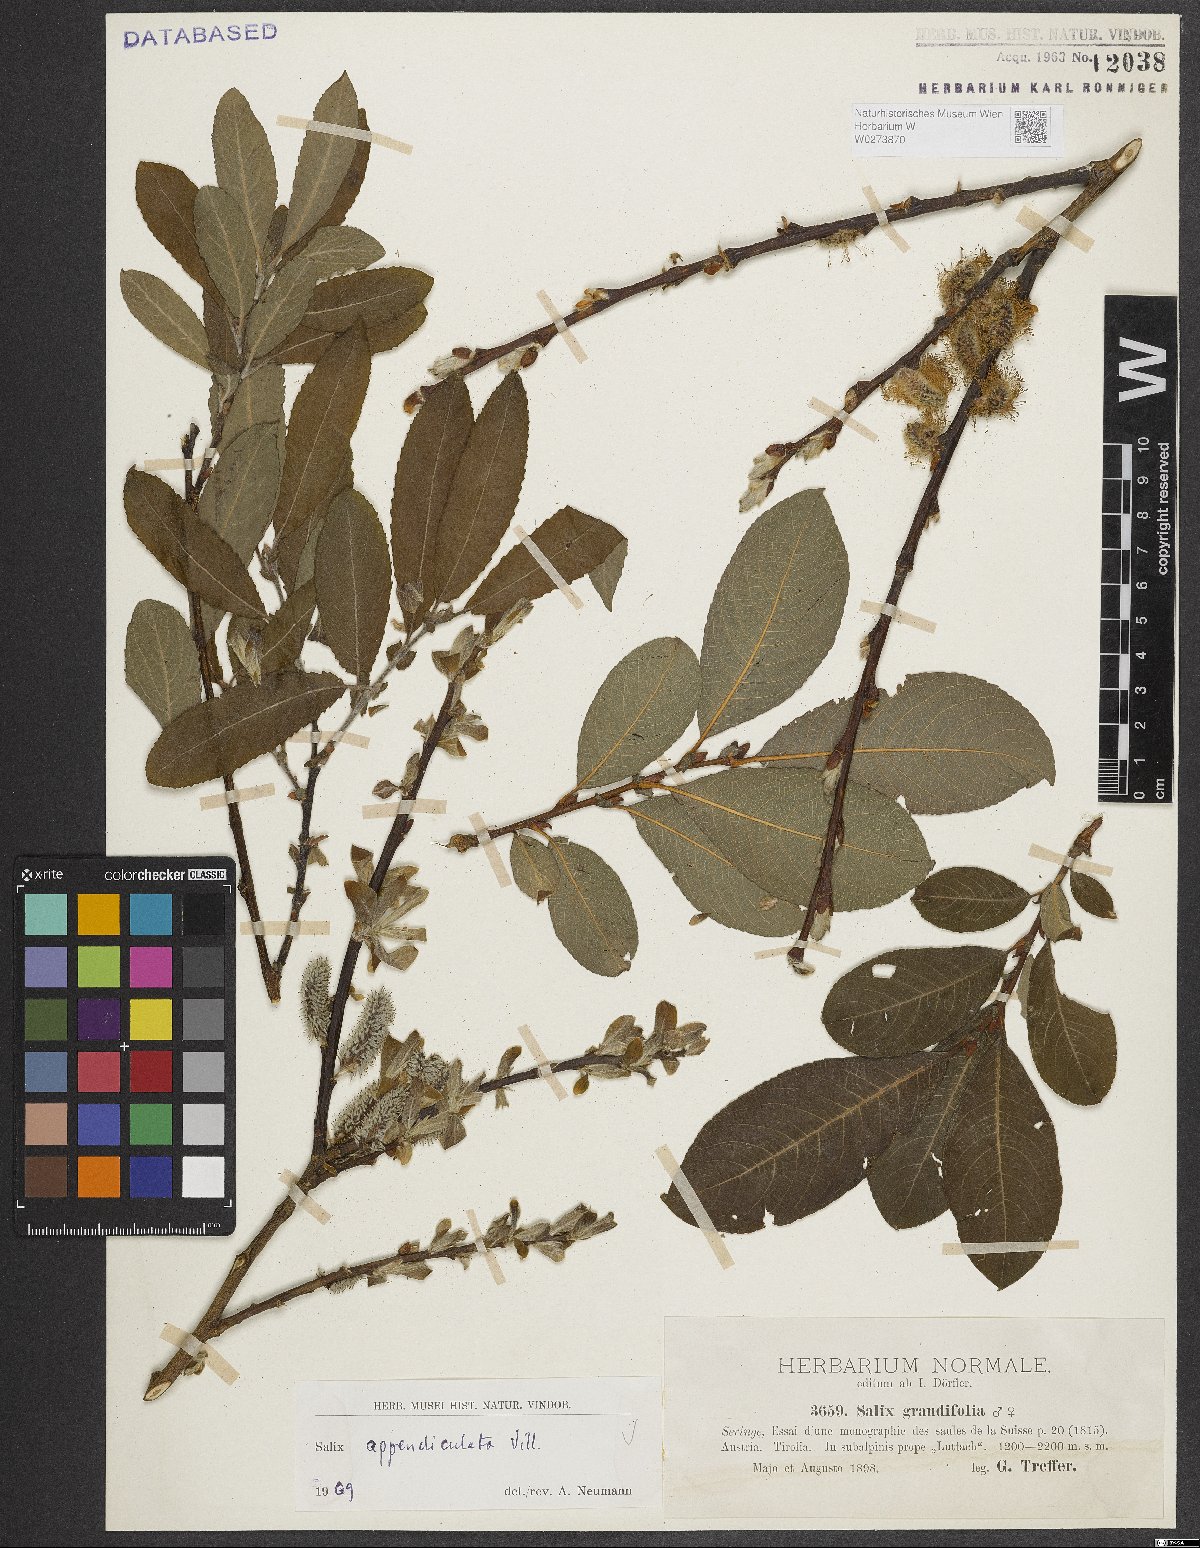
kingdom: Plantae
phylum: Tracheophyta
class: Magnoliopsida
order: Malpighiales
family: Salicaceae
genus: Salix
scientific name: Salix appendiculata
